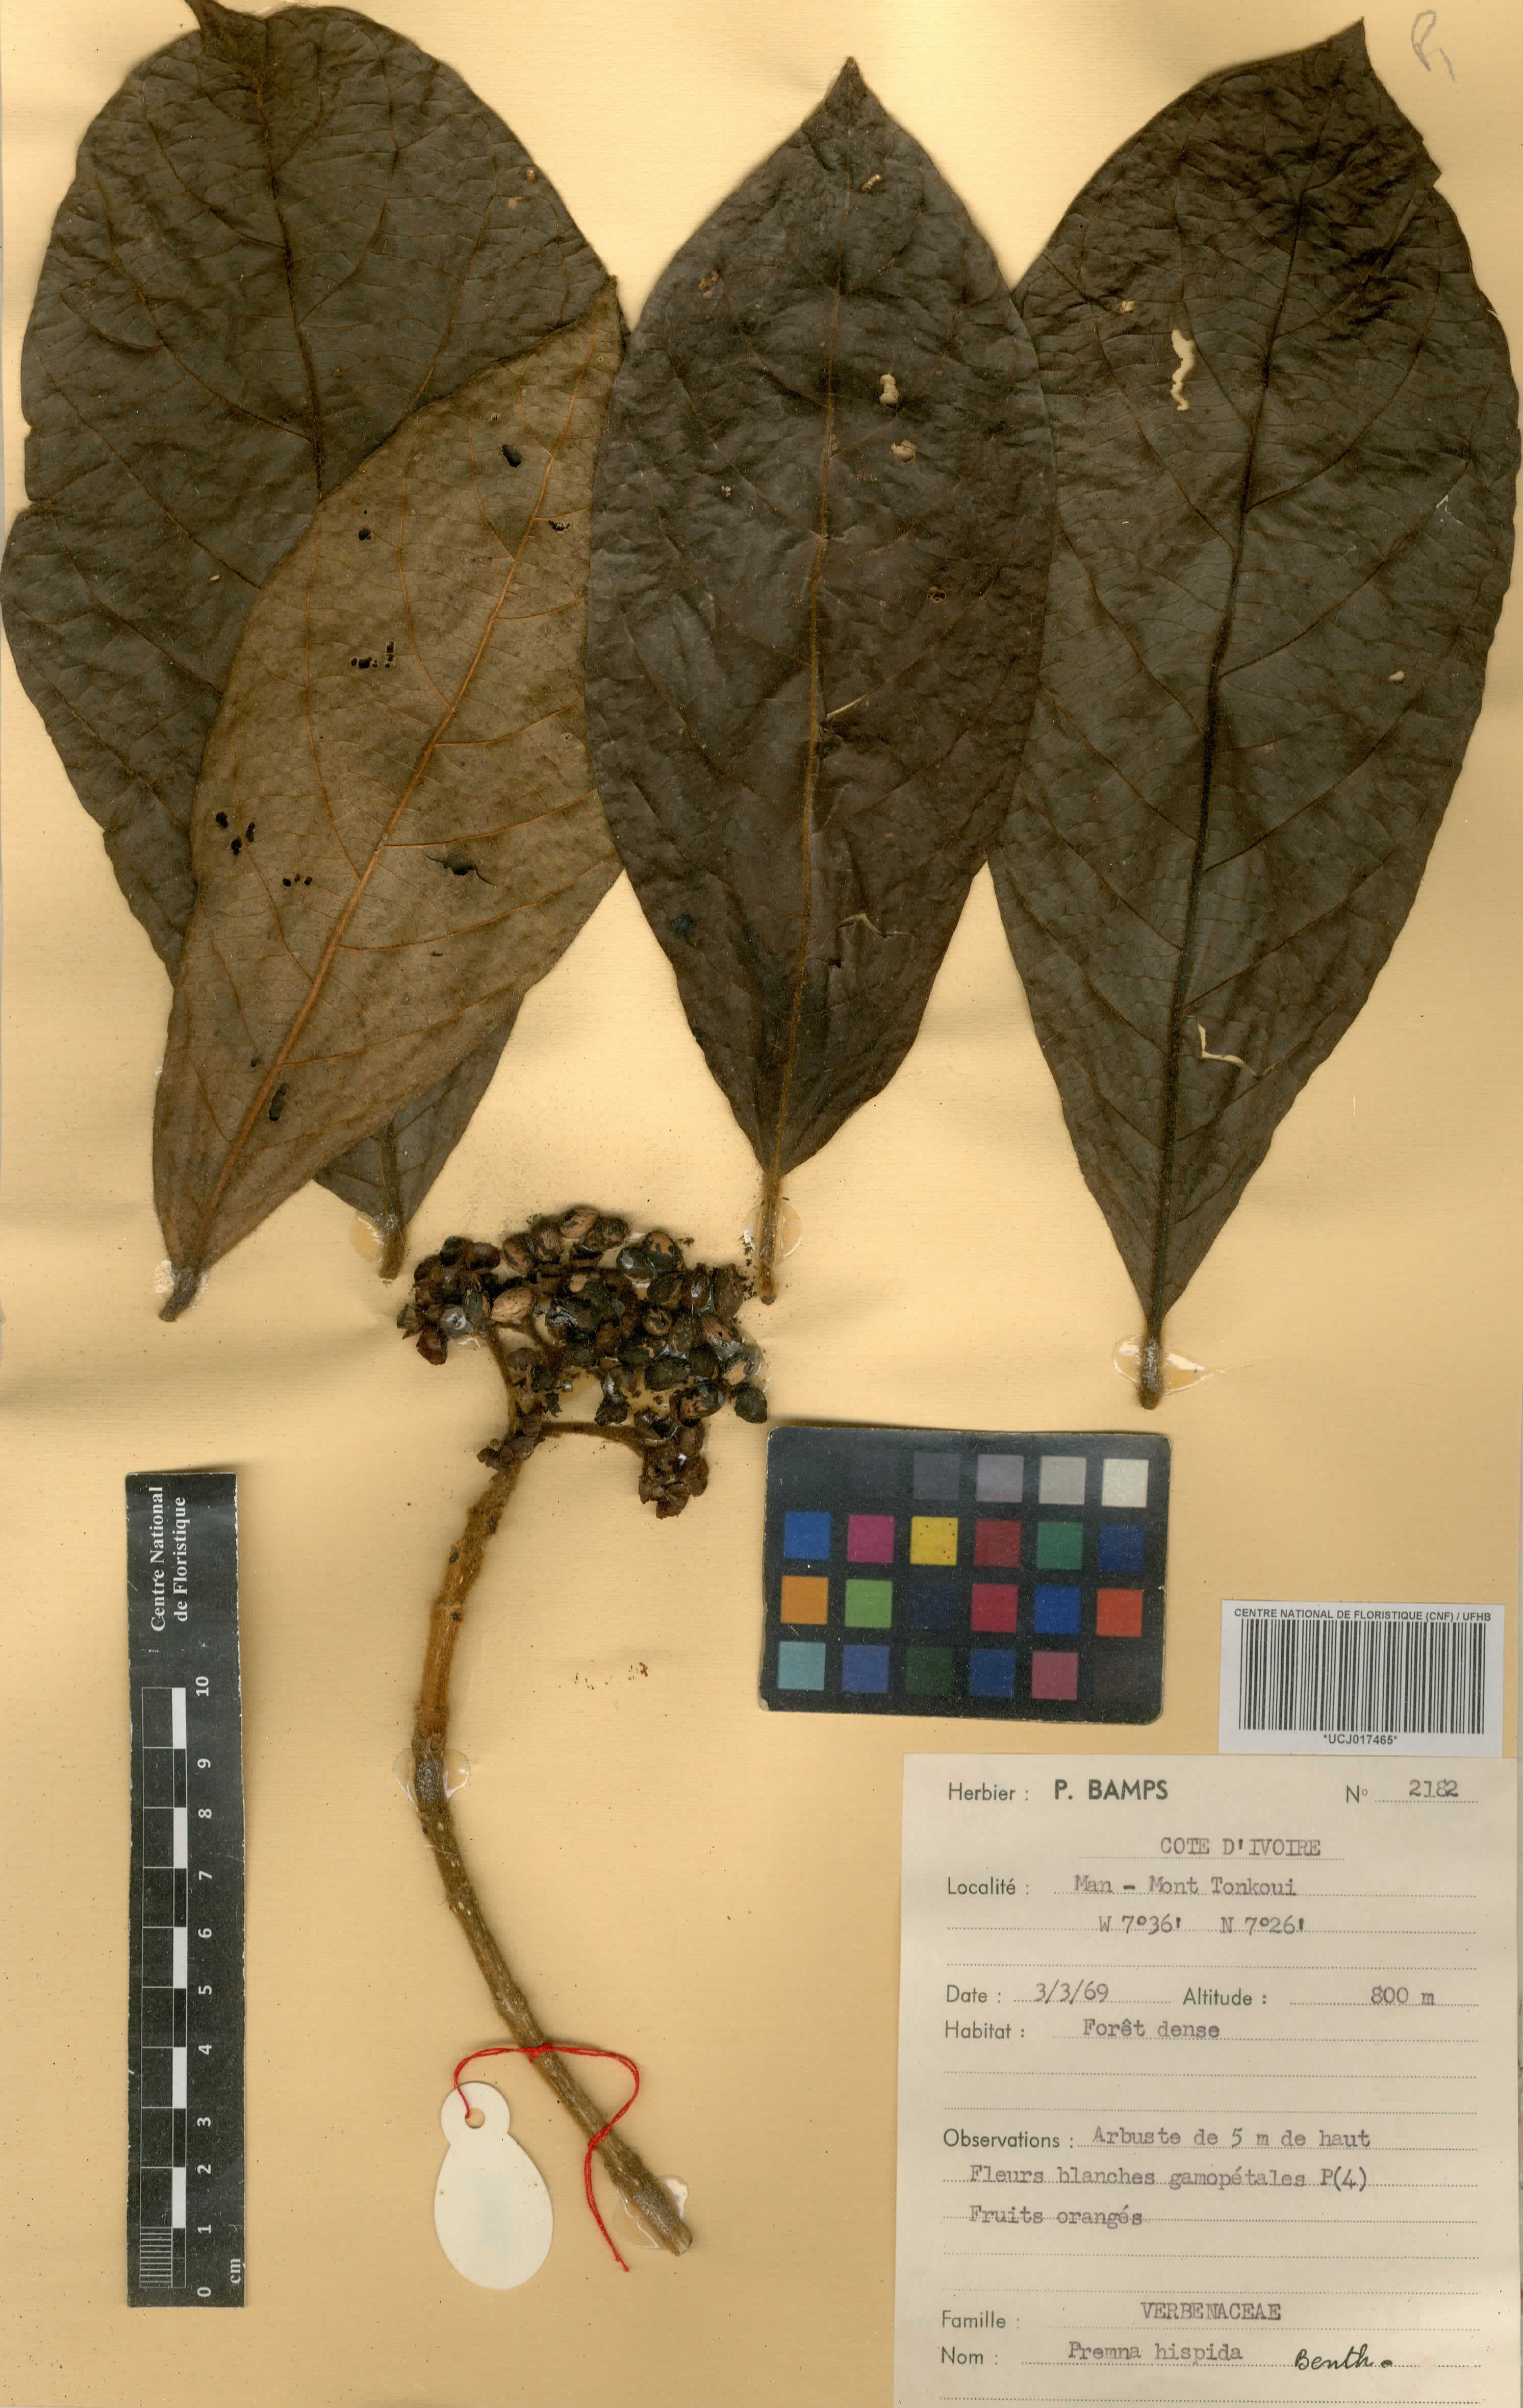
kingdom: Plantae
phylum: Tracheophyta
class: Magnoliopsida
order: Lamiales
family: Lamiaceae
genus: Premna
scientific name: Premna hispida
